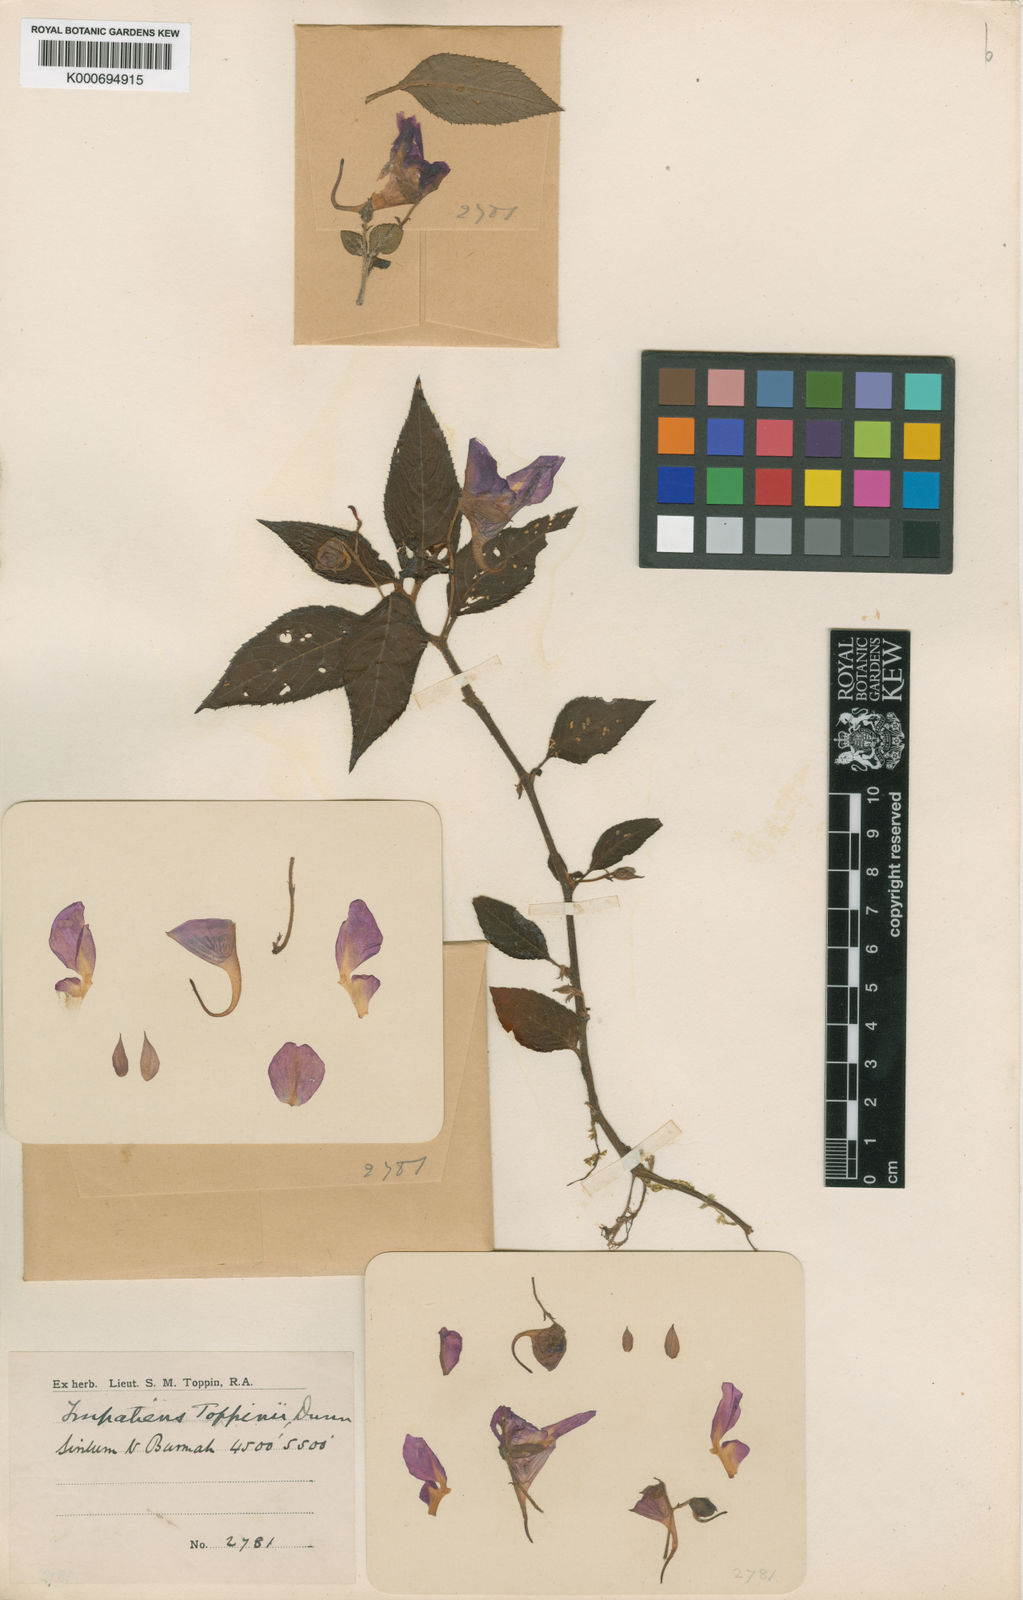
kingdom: Plantae
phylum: Tracheophyta
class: Magnoliopsida
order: Ericales
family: Balsaminaceae
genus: Impatiens
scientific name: Impatiens toppinii
